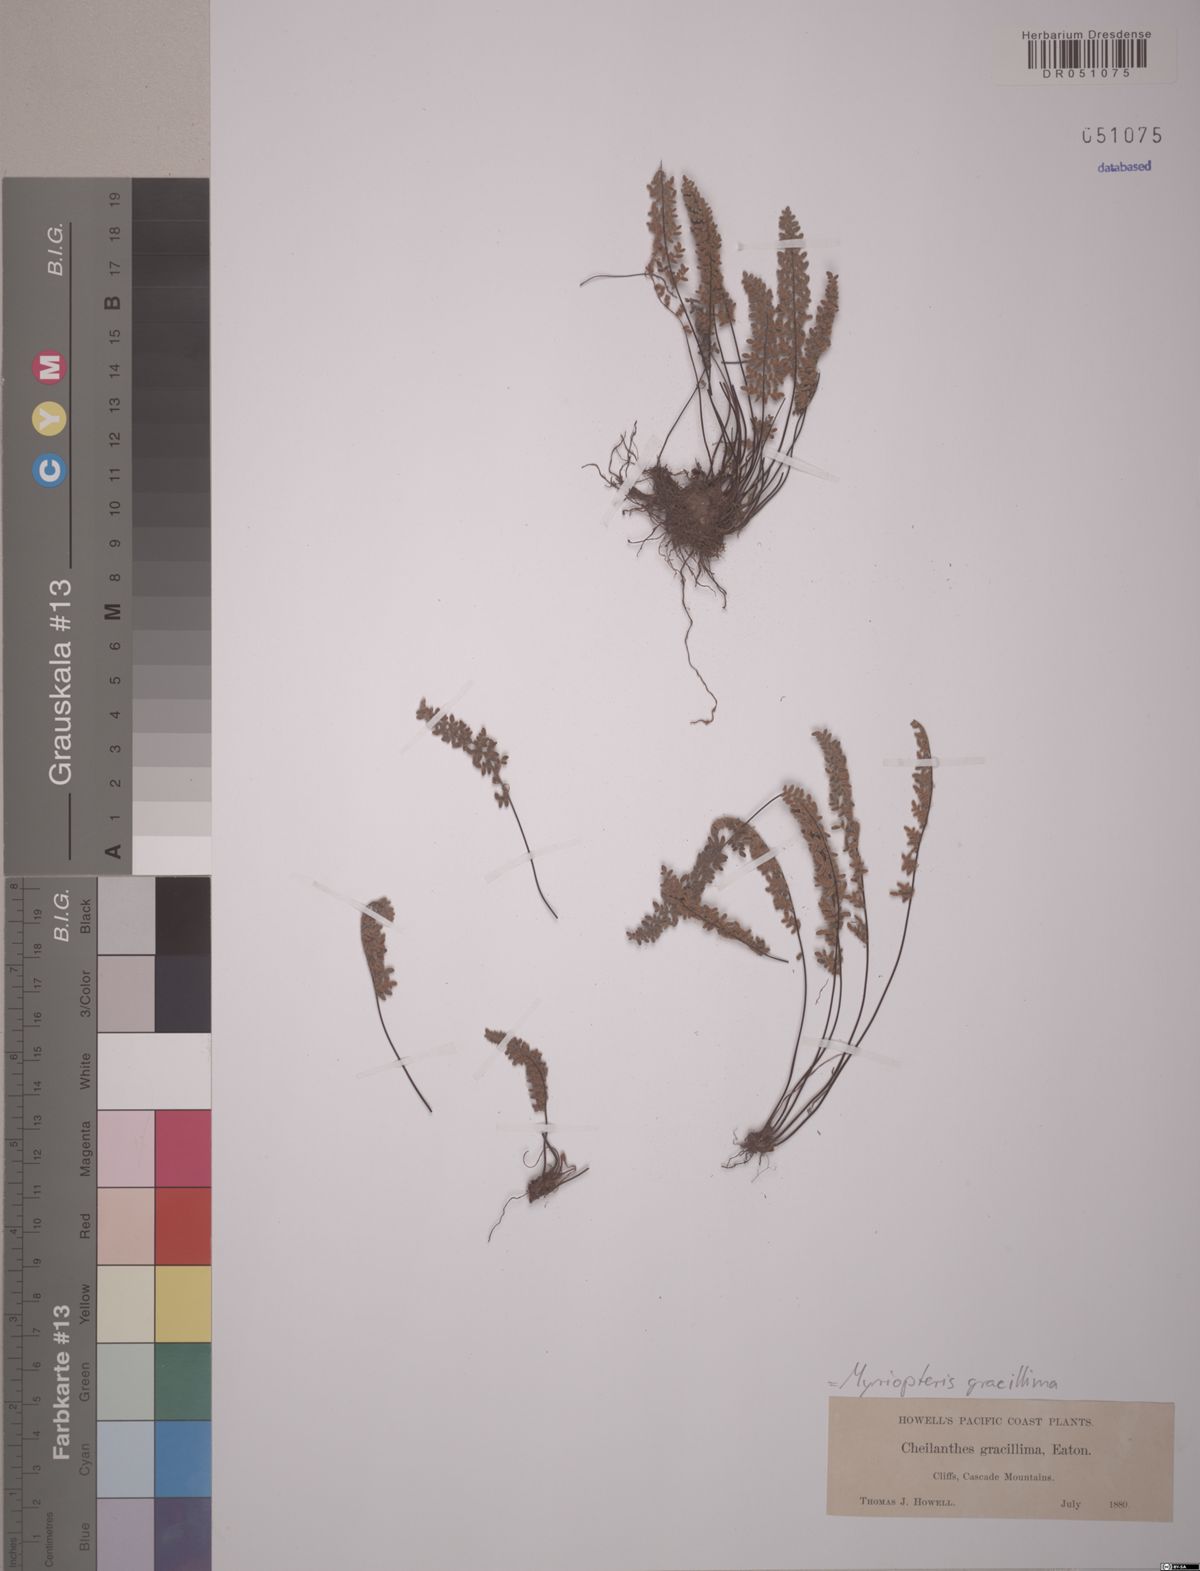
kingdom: Plantae
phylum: Tracheophyta
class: Polypodiopsida
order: Polypodiales
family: Pteridaceae
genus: Myriopteris
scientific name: Myriopteris gracillima
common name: Lace fern
